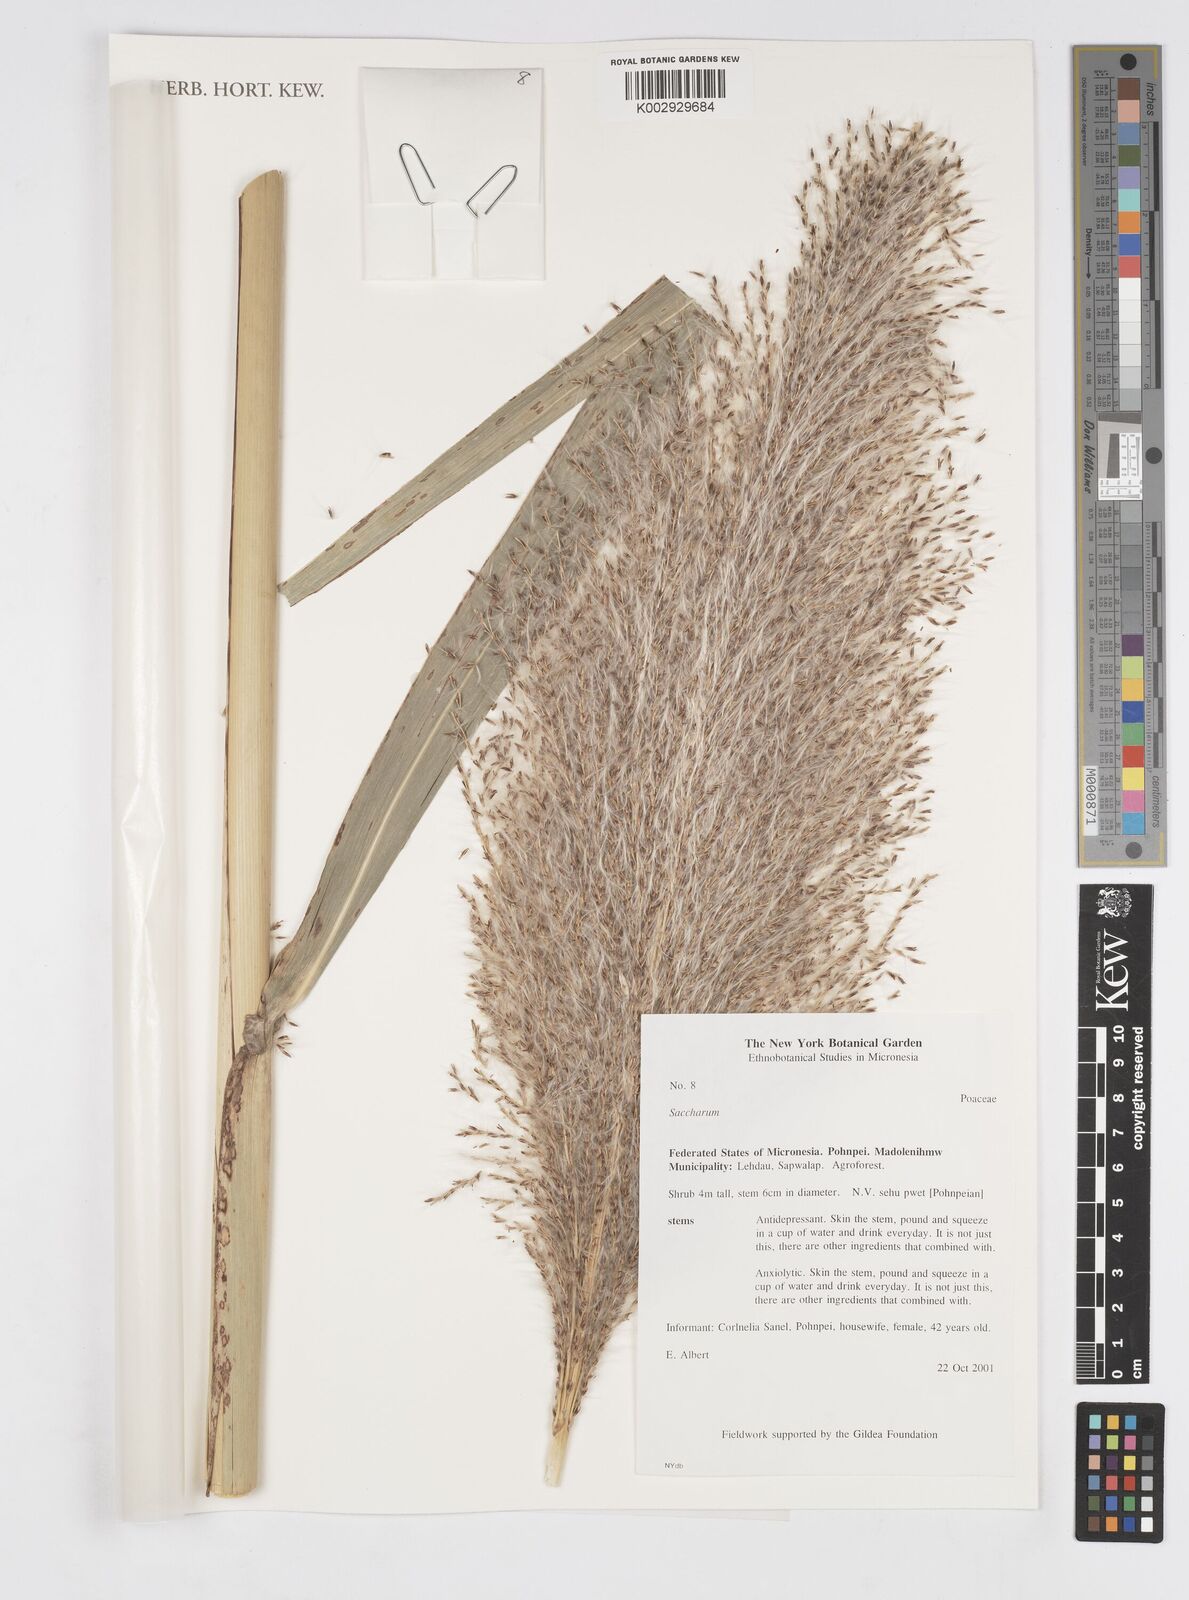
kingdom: Plantae
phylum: Tracheophyta
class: Liliopsida
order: Poales
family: Poaceae
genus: Saccharum
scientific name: Saccharum
